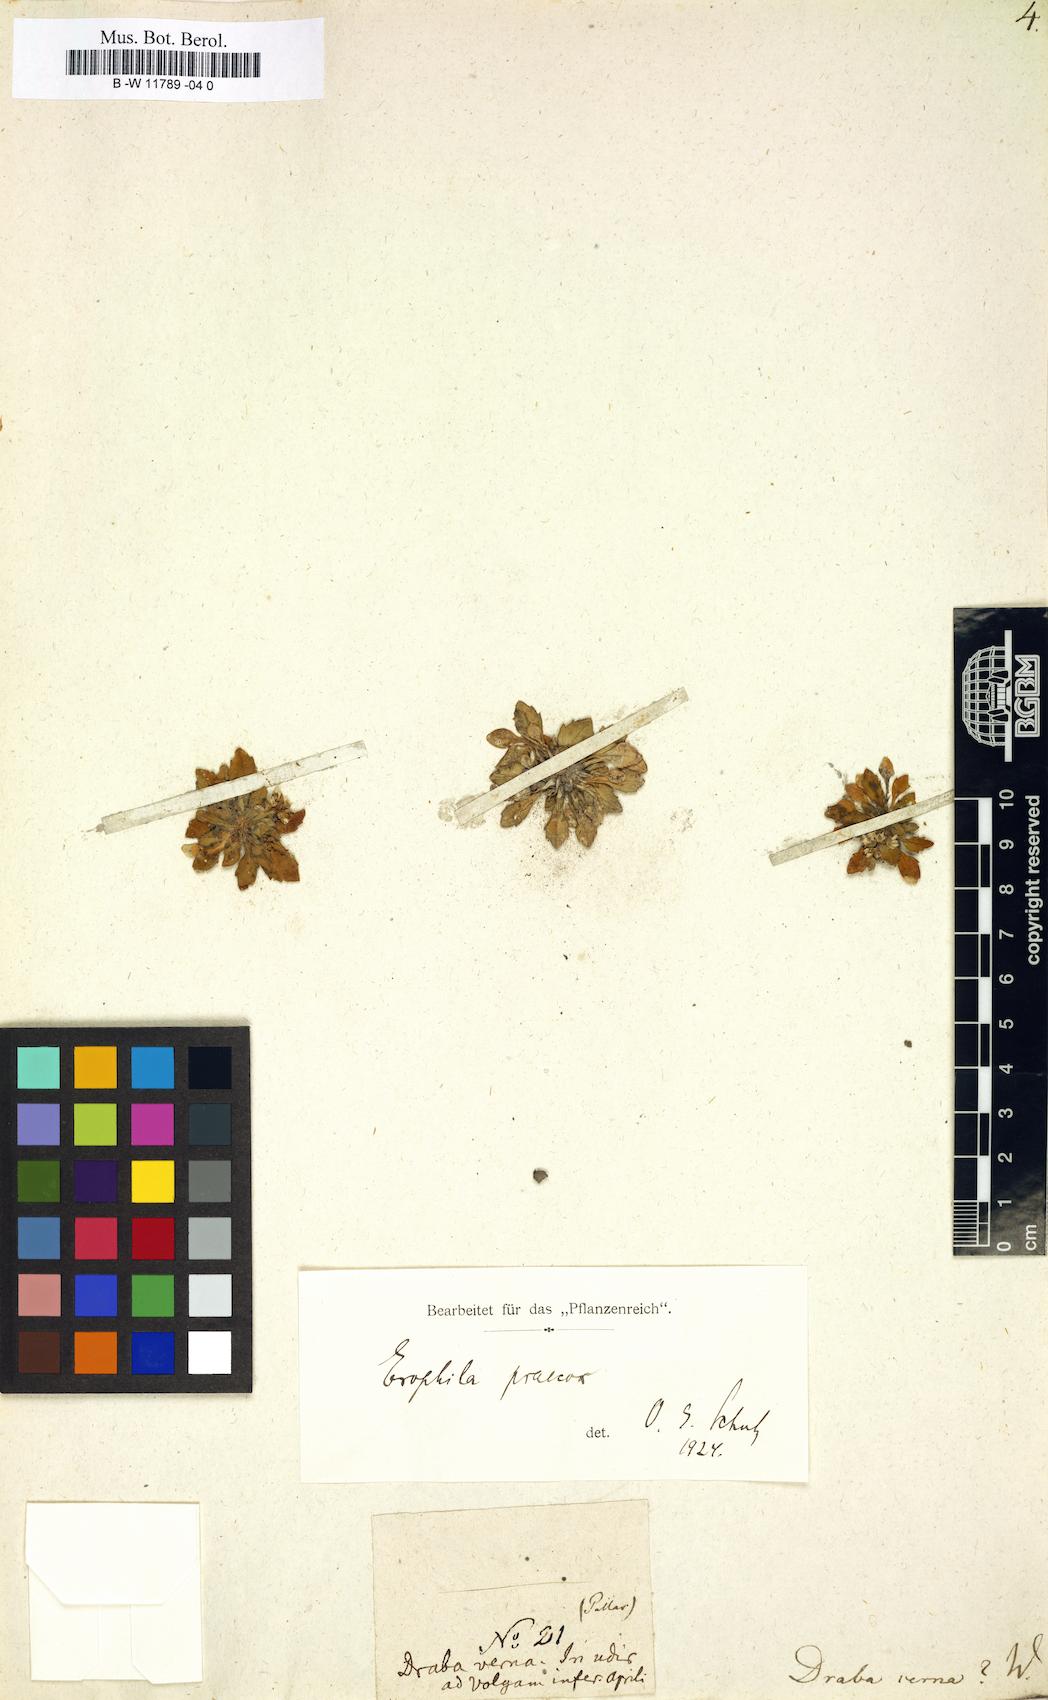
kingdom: Plantae
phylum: Tracheophyta
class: Magnoliopsida
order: Brassicales
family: Brassicaceae
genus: Draba
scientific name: Draba verna
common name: Spring draba
